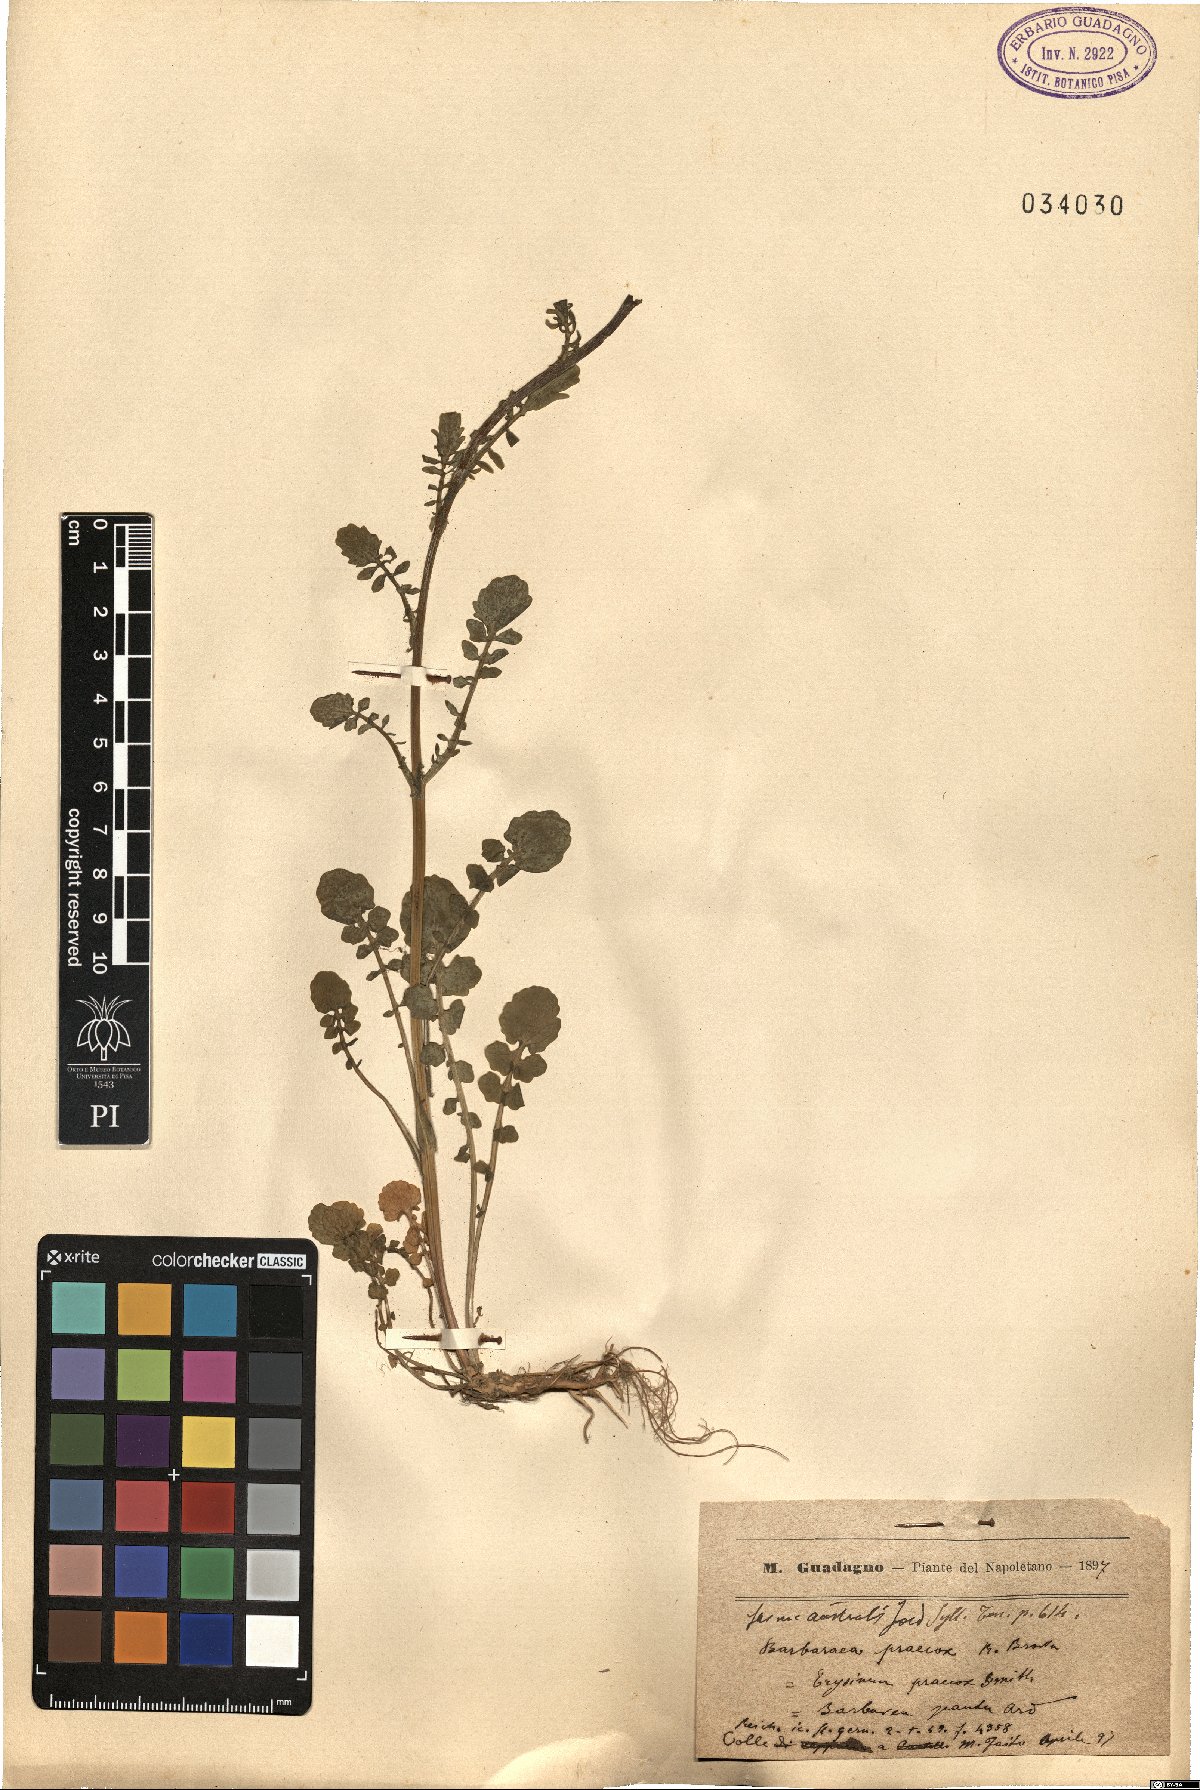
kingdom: Plantae
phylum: Tracheophyta
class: Magnoliopsida
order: Brassicales
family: Brassicaceae
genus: Barbarea
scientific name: Barbarea verna
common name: American cress
